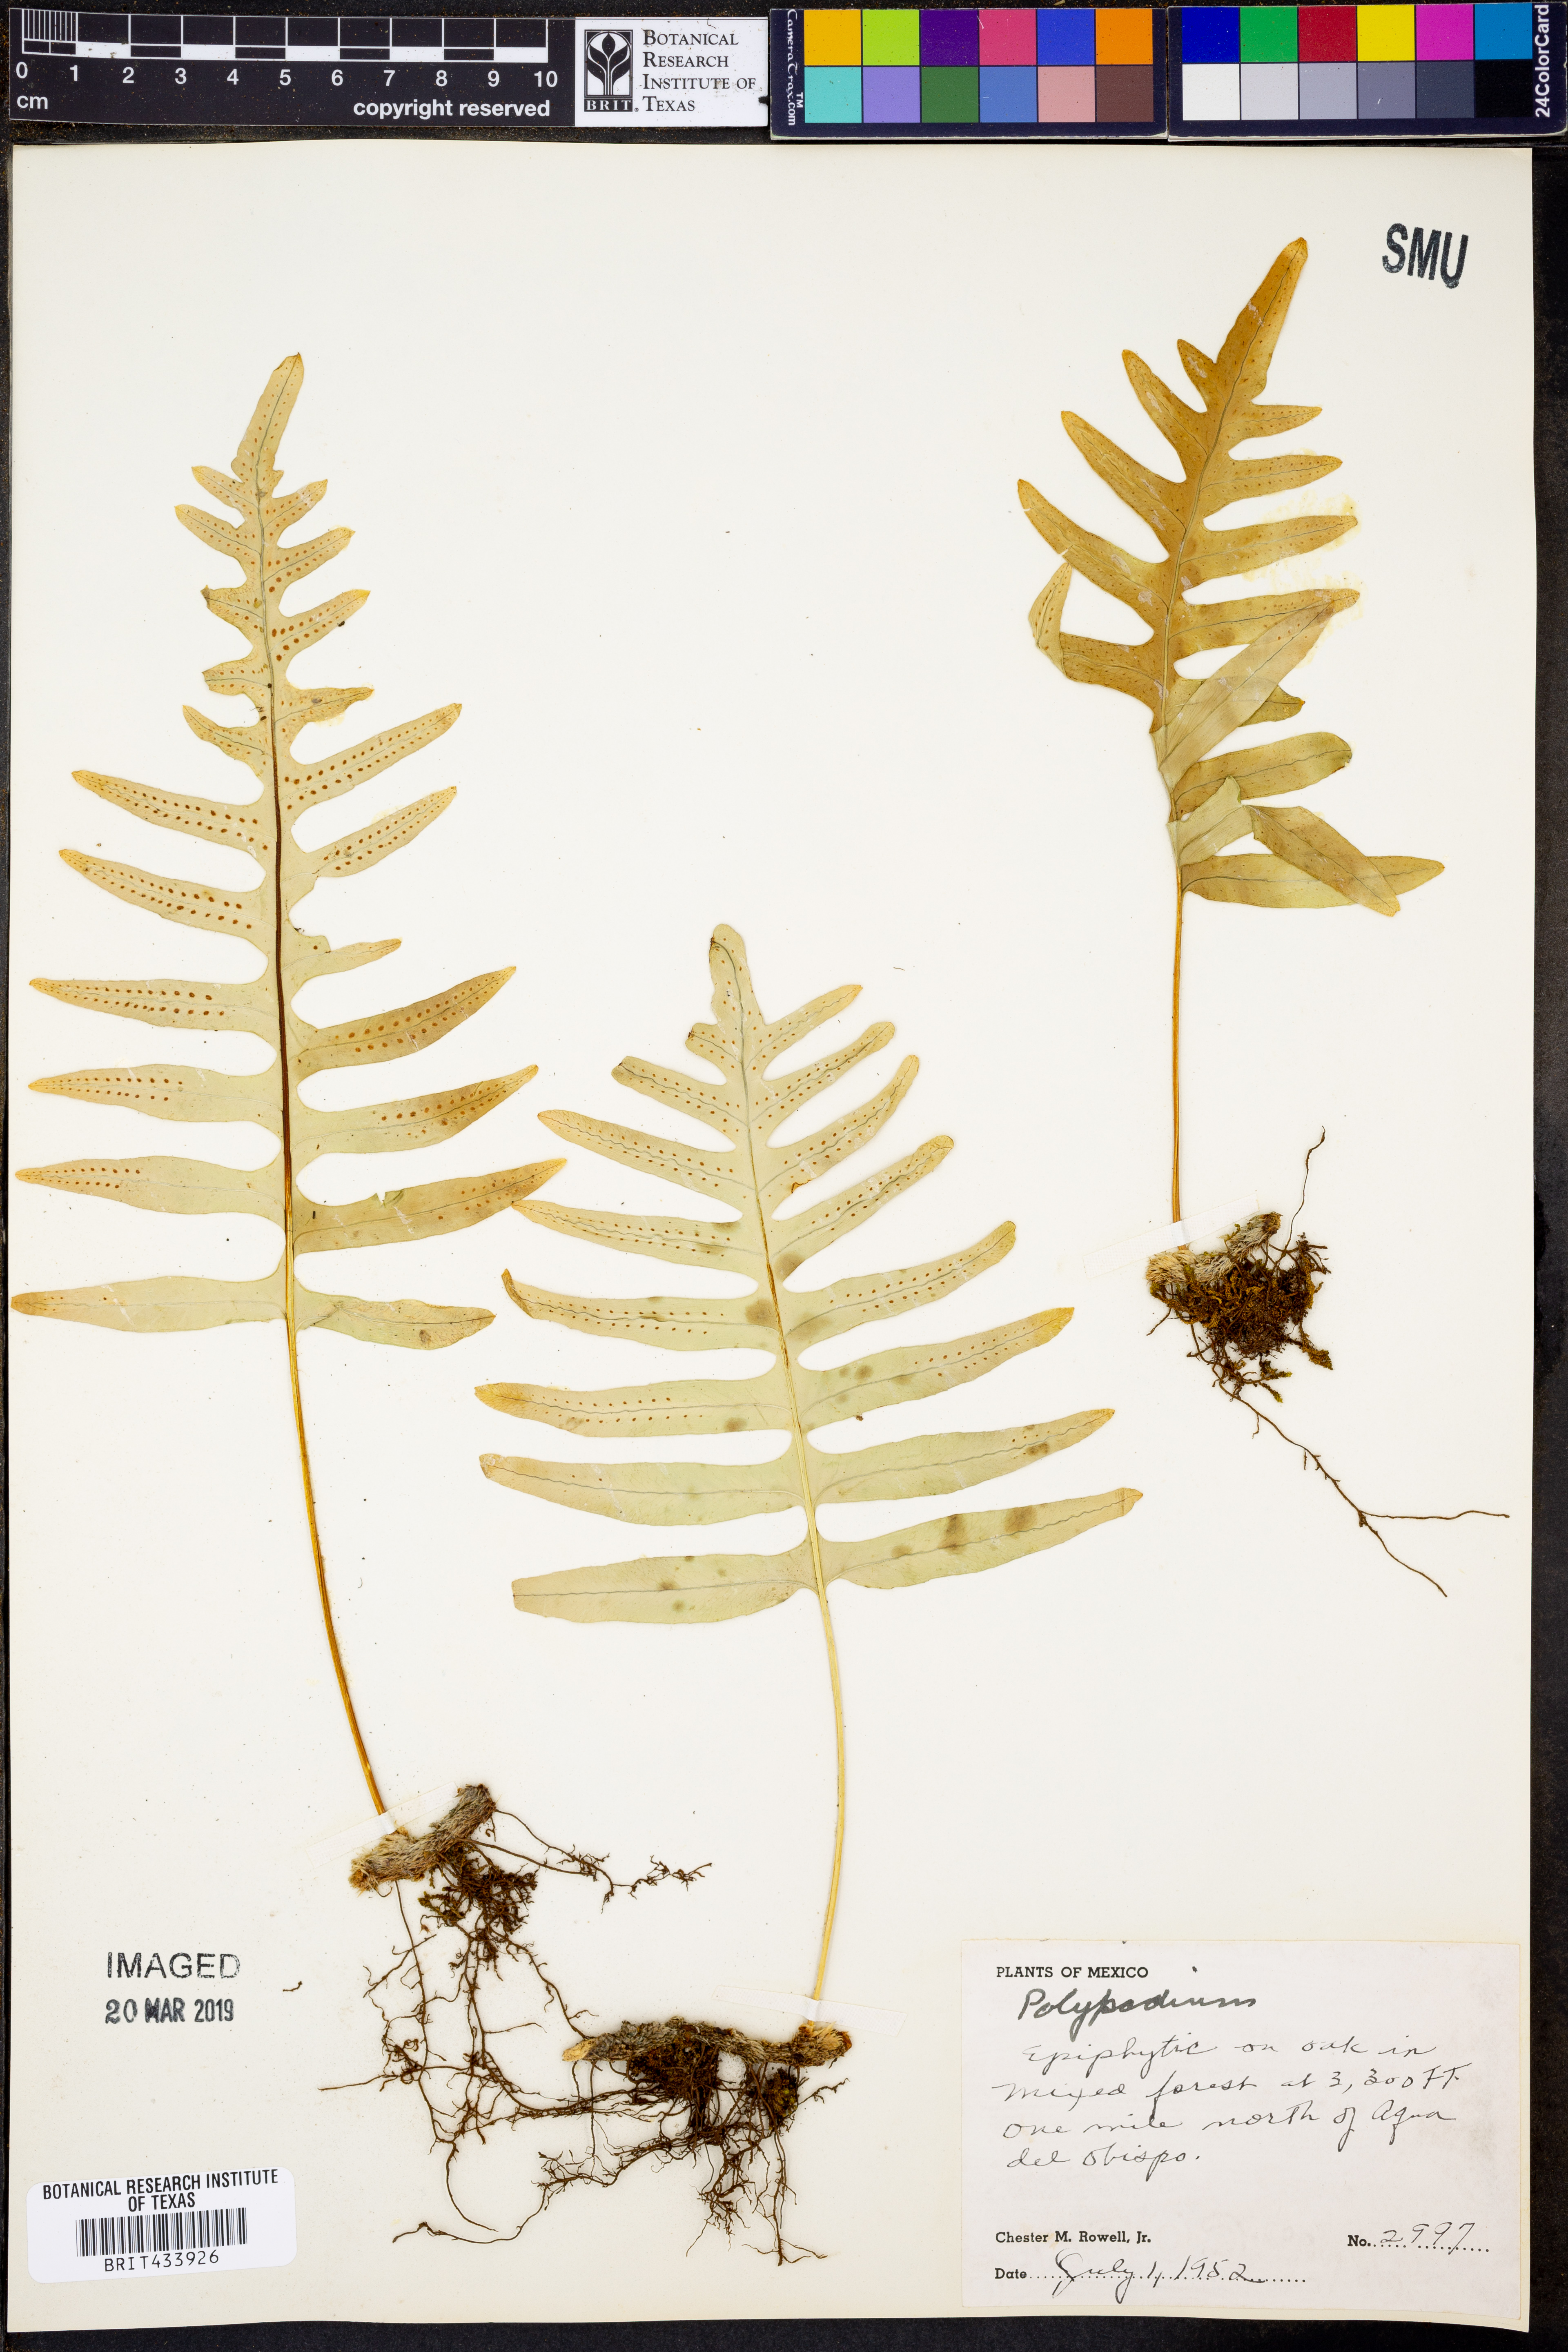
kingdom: Plantae
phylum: Tracheophyta
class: Polypodiopsida
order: Polypodiales
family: Polypodiaceae
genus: Polypodium
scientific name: Polypodium
